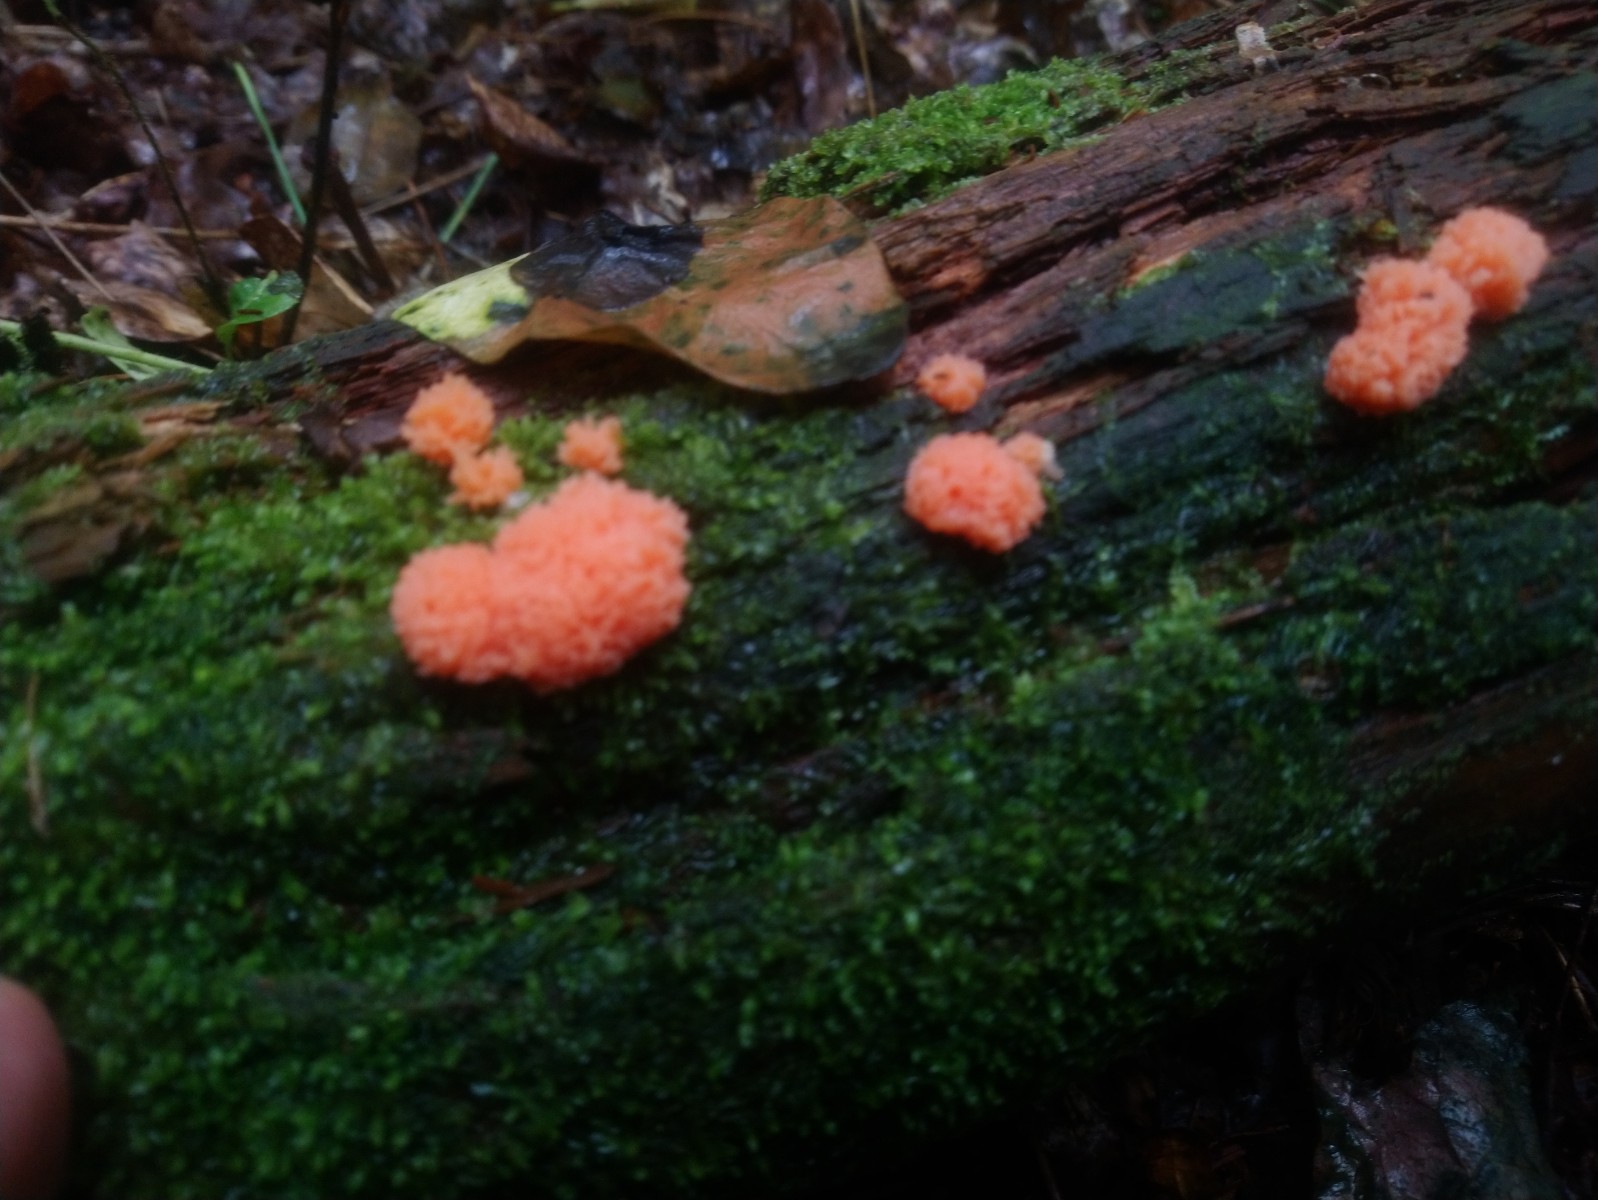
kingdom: Protozoa
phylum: Mycetozoa
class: Myxomycetes
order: Cribrariales
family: Tubiferaceae
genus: Tubifera
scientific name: Tubifera ferruginosa
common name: kanel-støvrør
